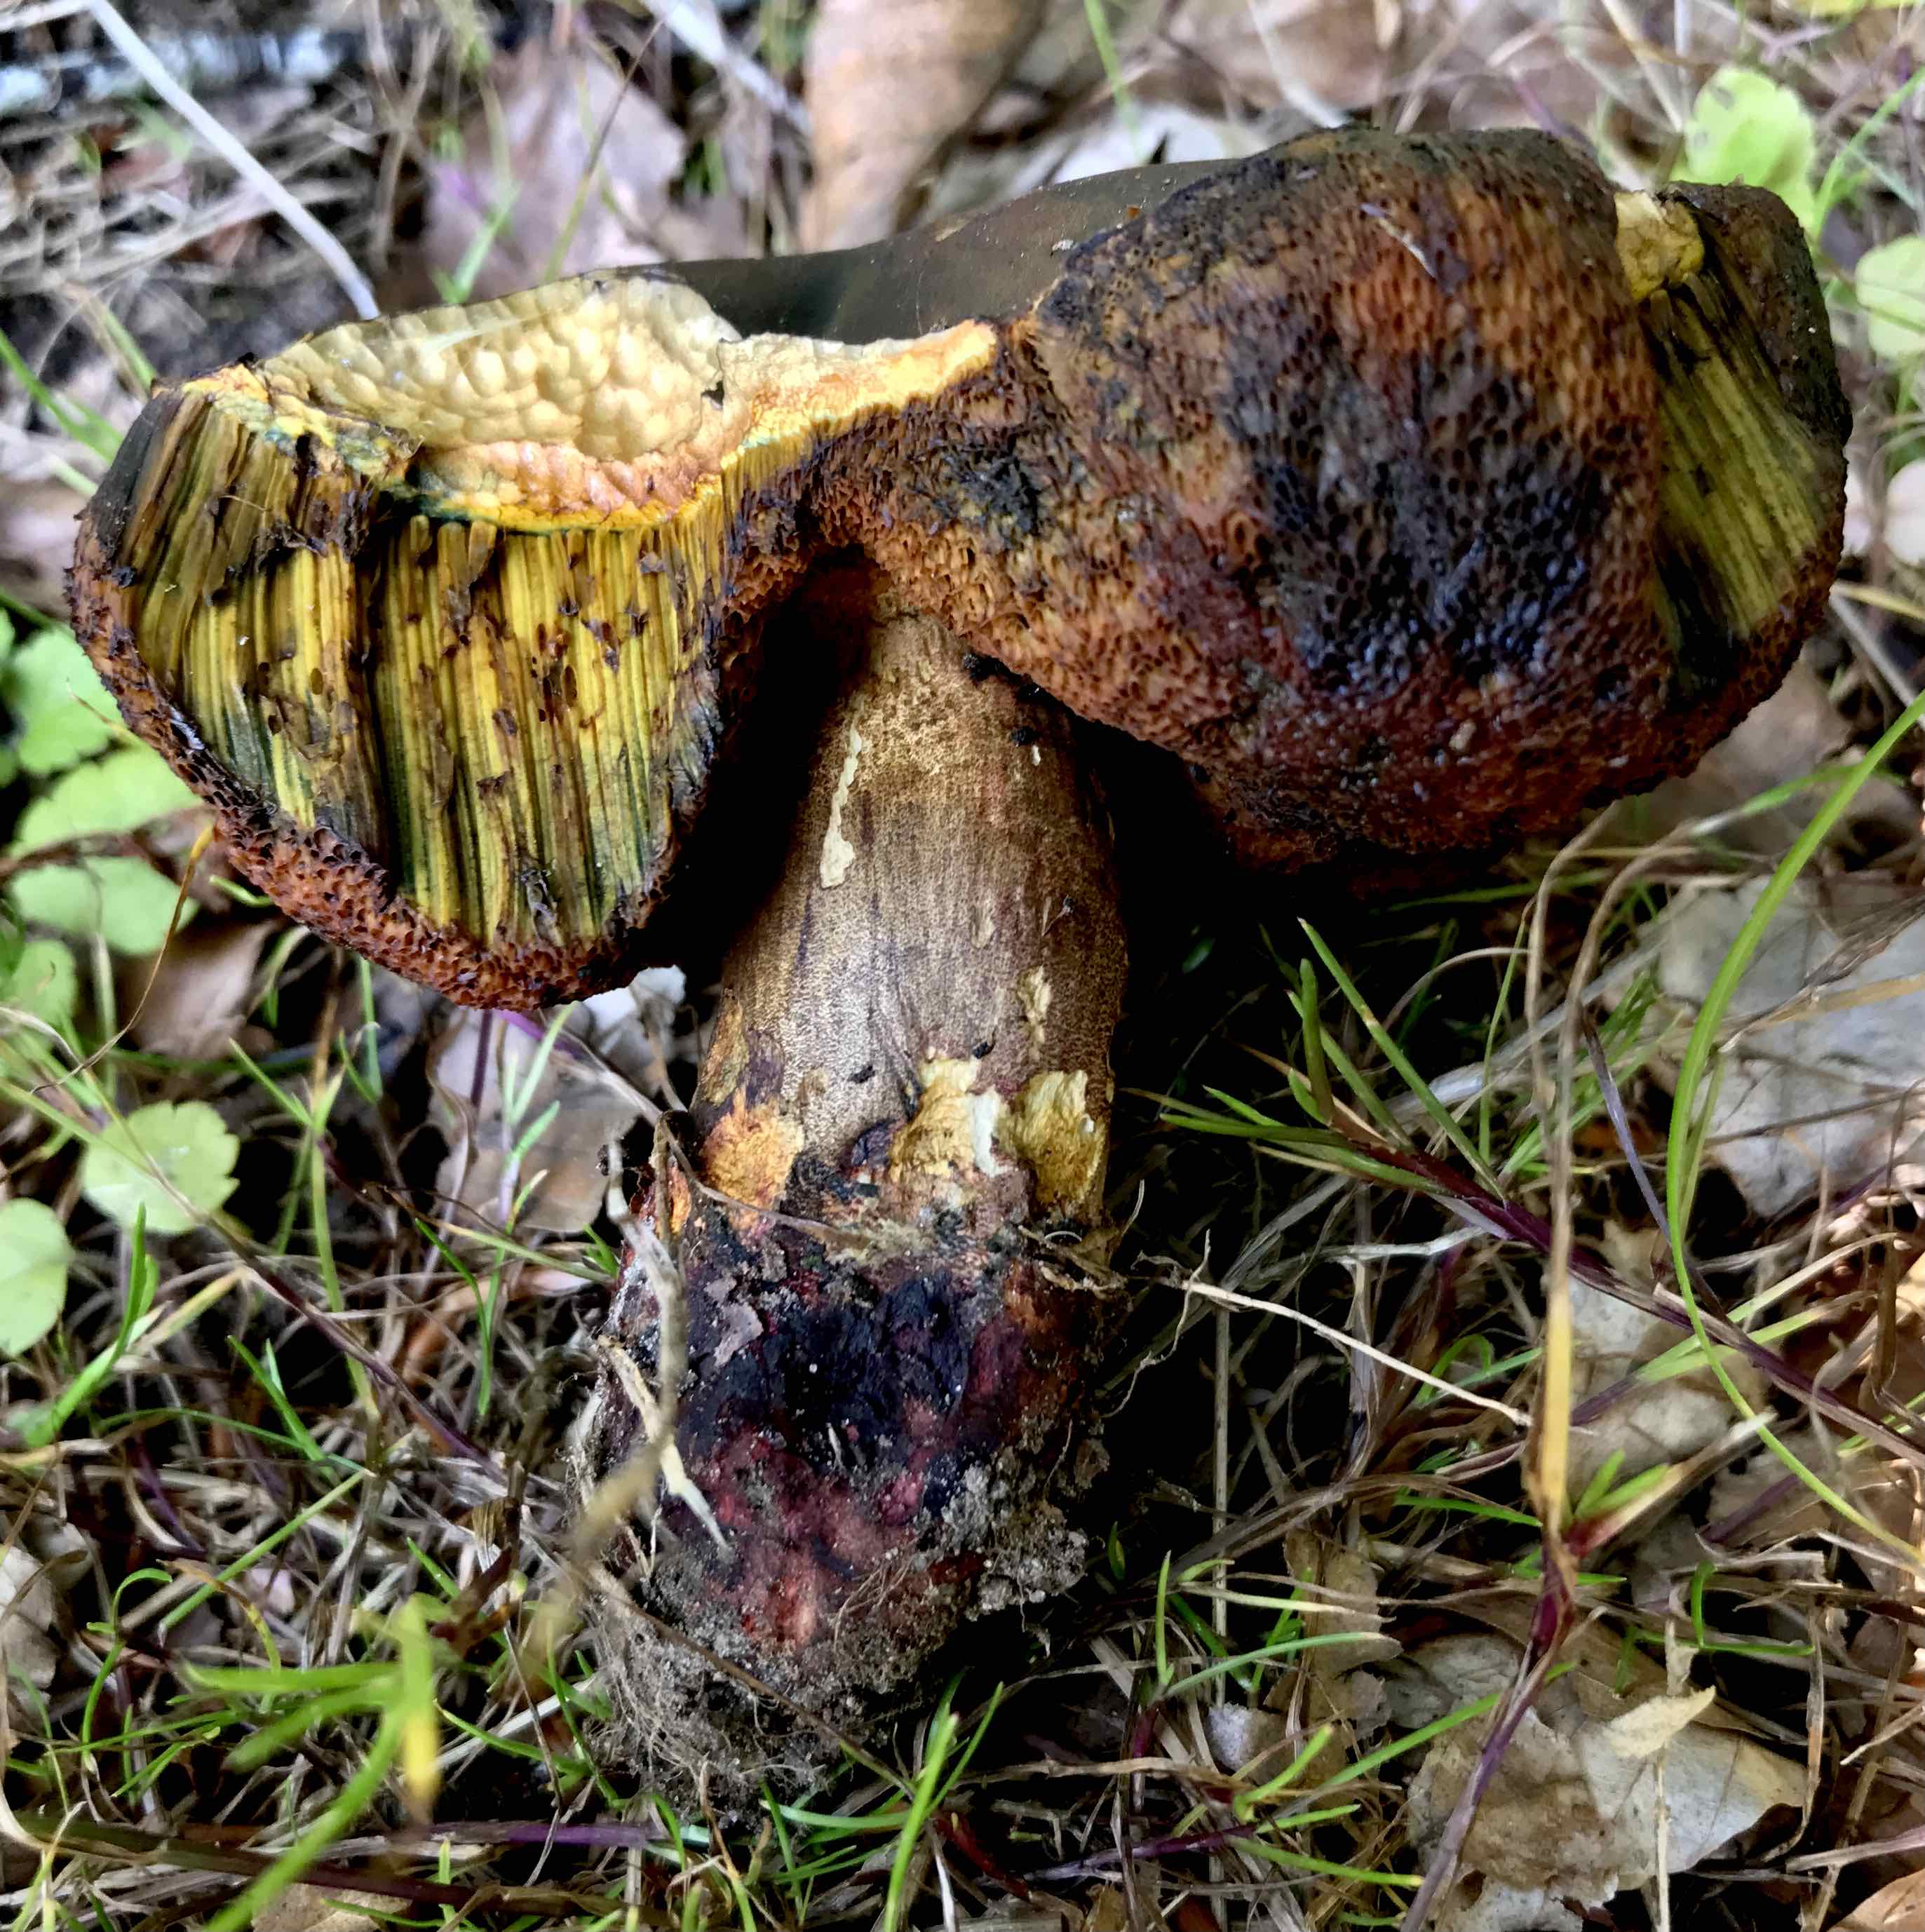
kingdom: Fungi
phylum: Basidiomycota
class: Agaricomycetes
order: Boletales
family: Boletaceae
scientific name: Boletaceae
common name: rørhatfamilien
